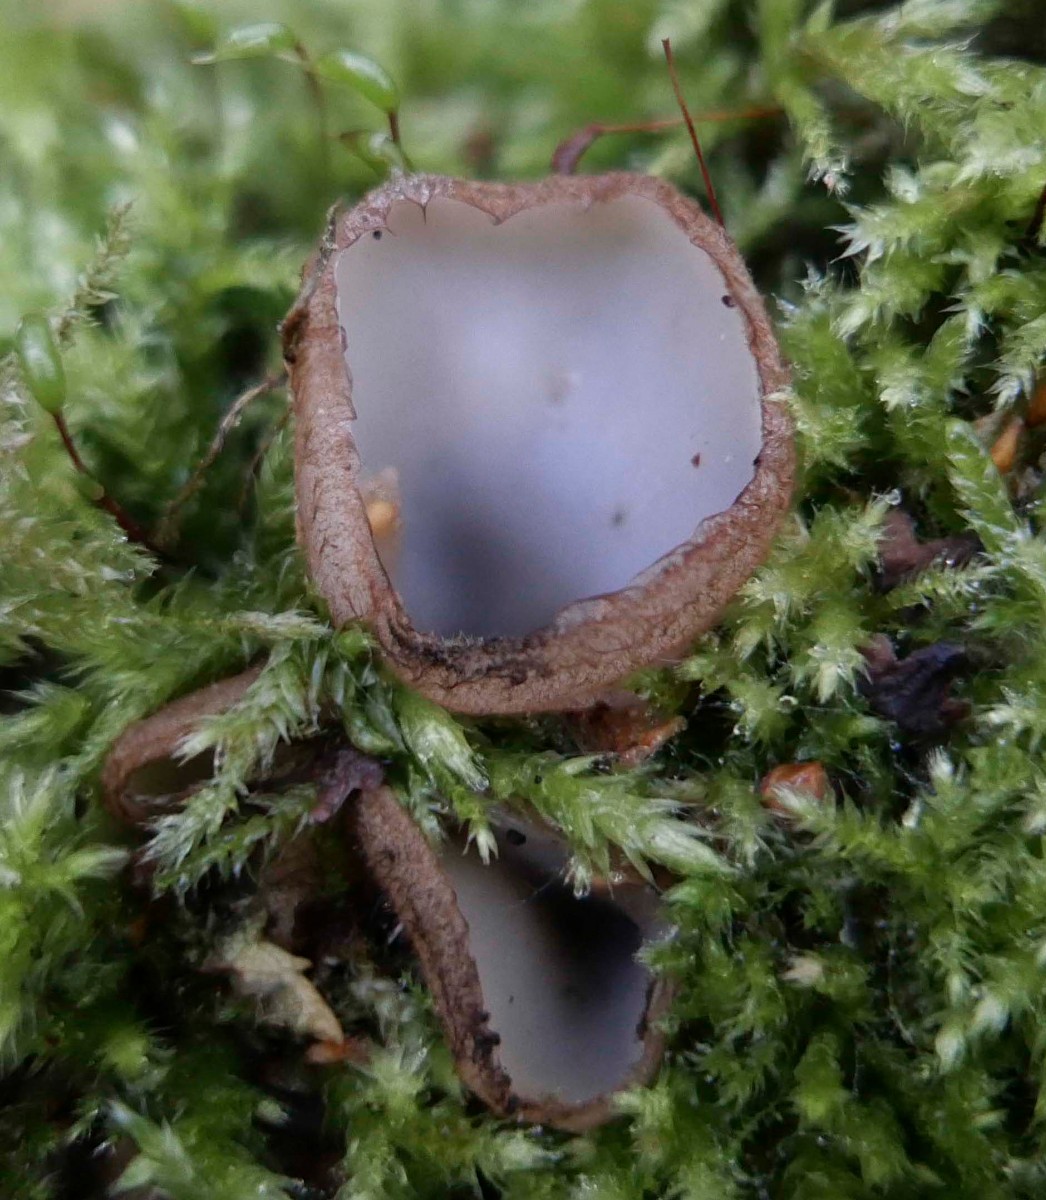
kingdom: Fungi
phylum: Ascomycota
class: Pezizomycetes
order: Pezizales
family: Pyronemataceae
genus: Humaria
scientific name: Humaria hemisphaerica
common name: halvkugleformet børstebæger
